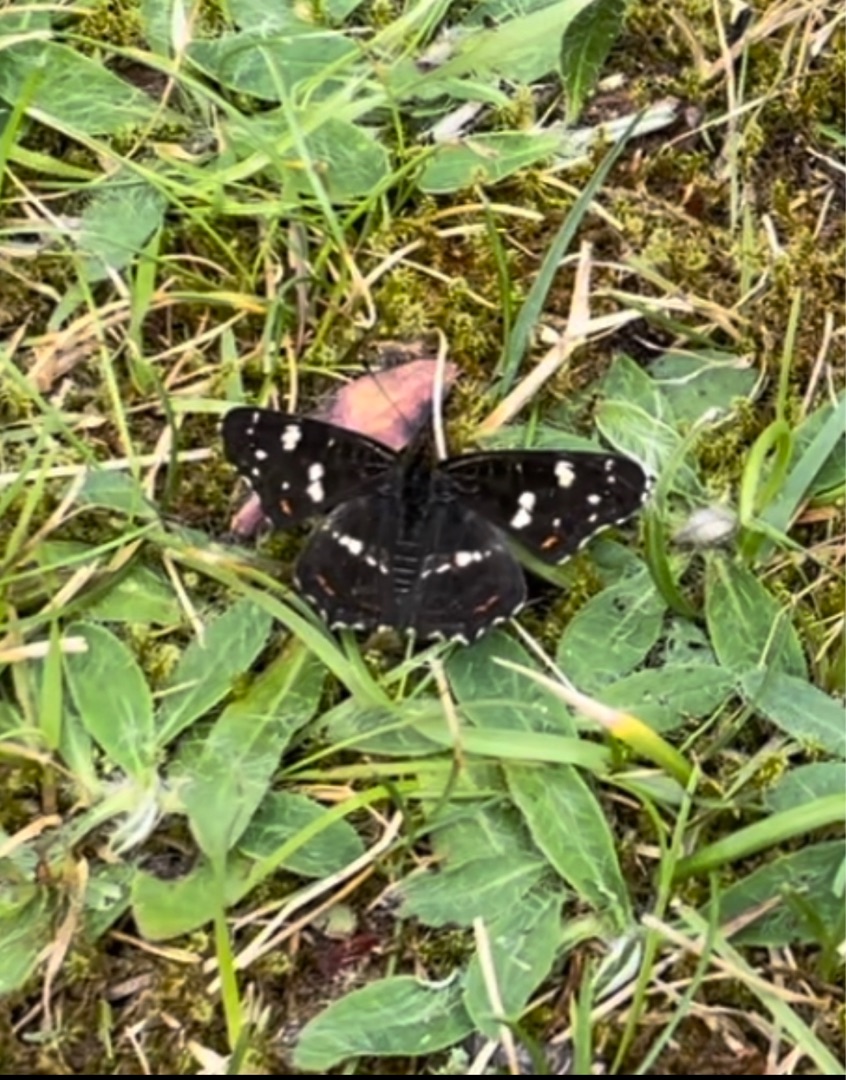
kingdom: Animalia
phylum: Arthropoda
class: Insecta
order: Lepidoptera
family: Nymphalidae
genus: Araschnia
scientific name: Araschnia levana
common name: Nældesommerfugl
